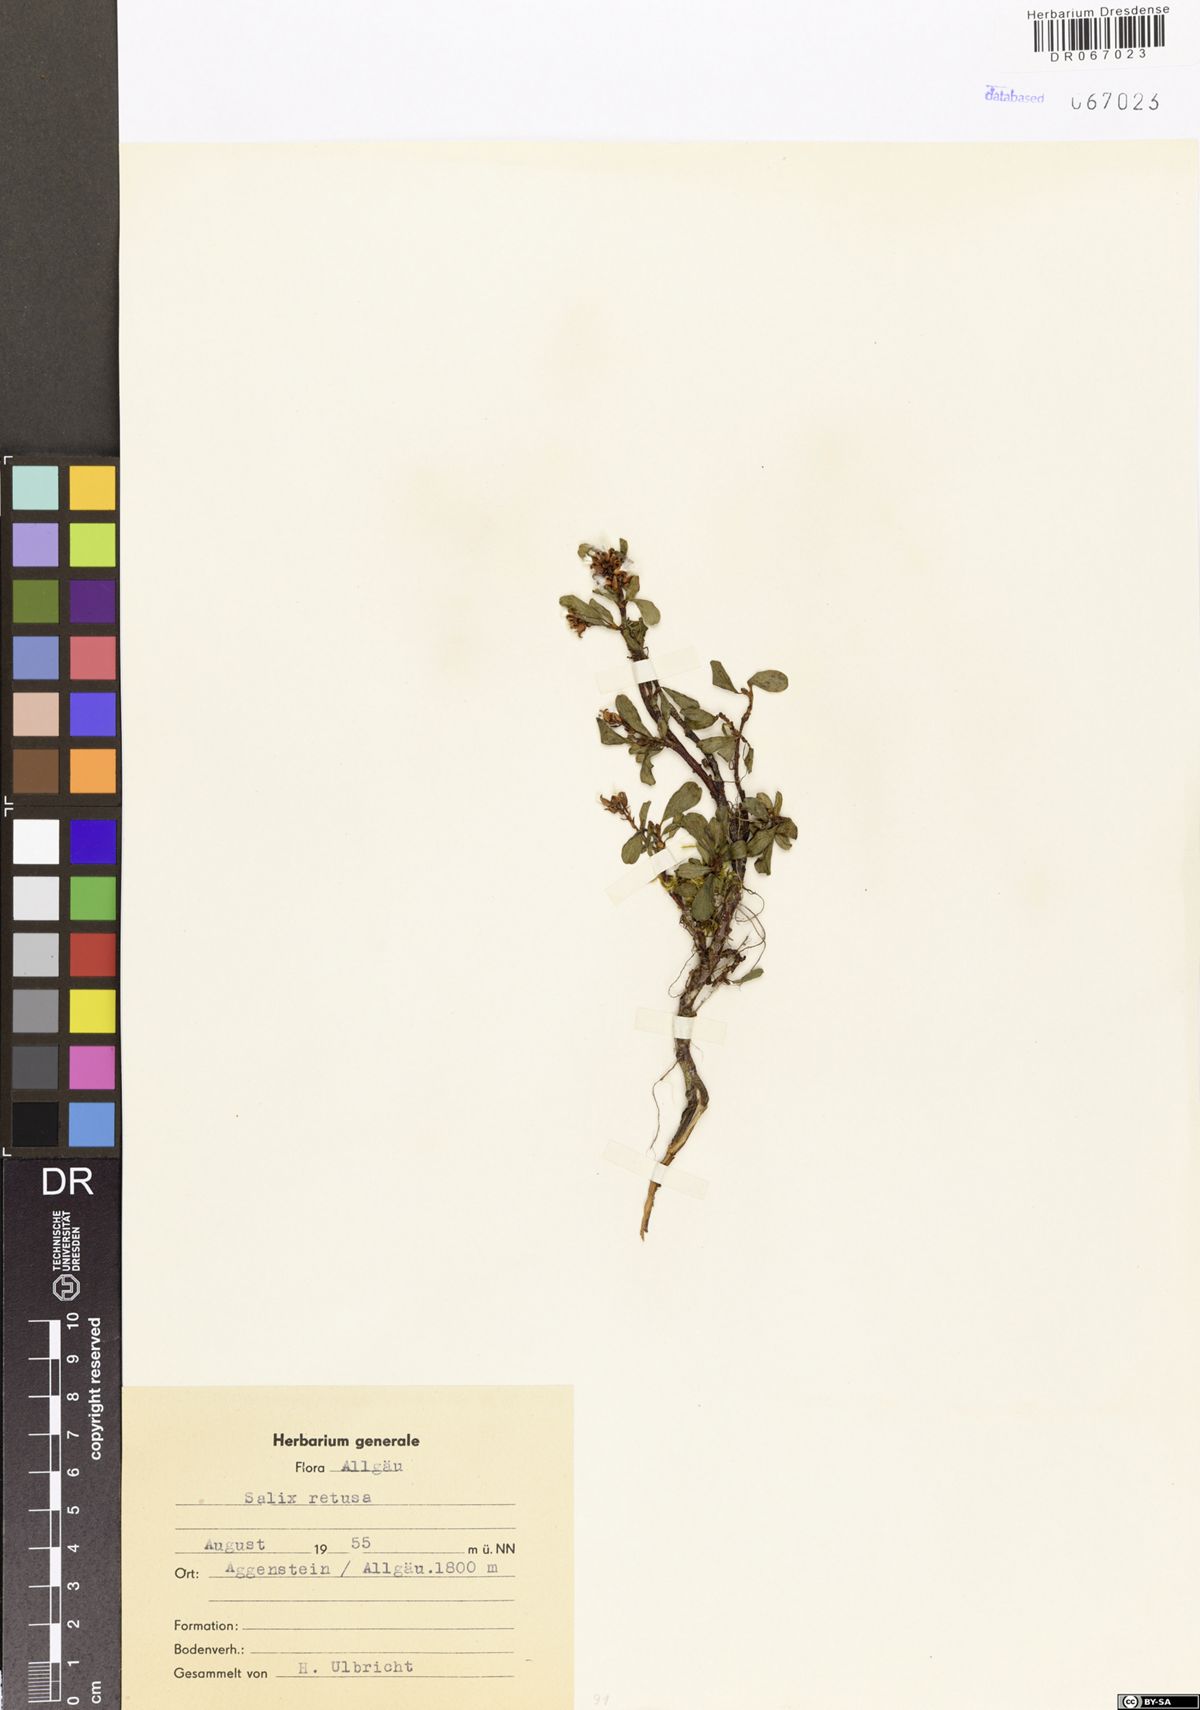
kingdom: Plantae
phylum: Tracheophyta
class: Magnoliopsida
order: Malpighiales
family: Salicaceae
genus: Salix
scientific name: Salix retusa
